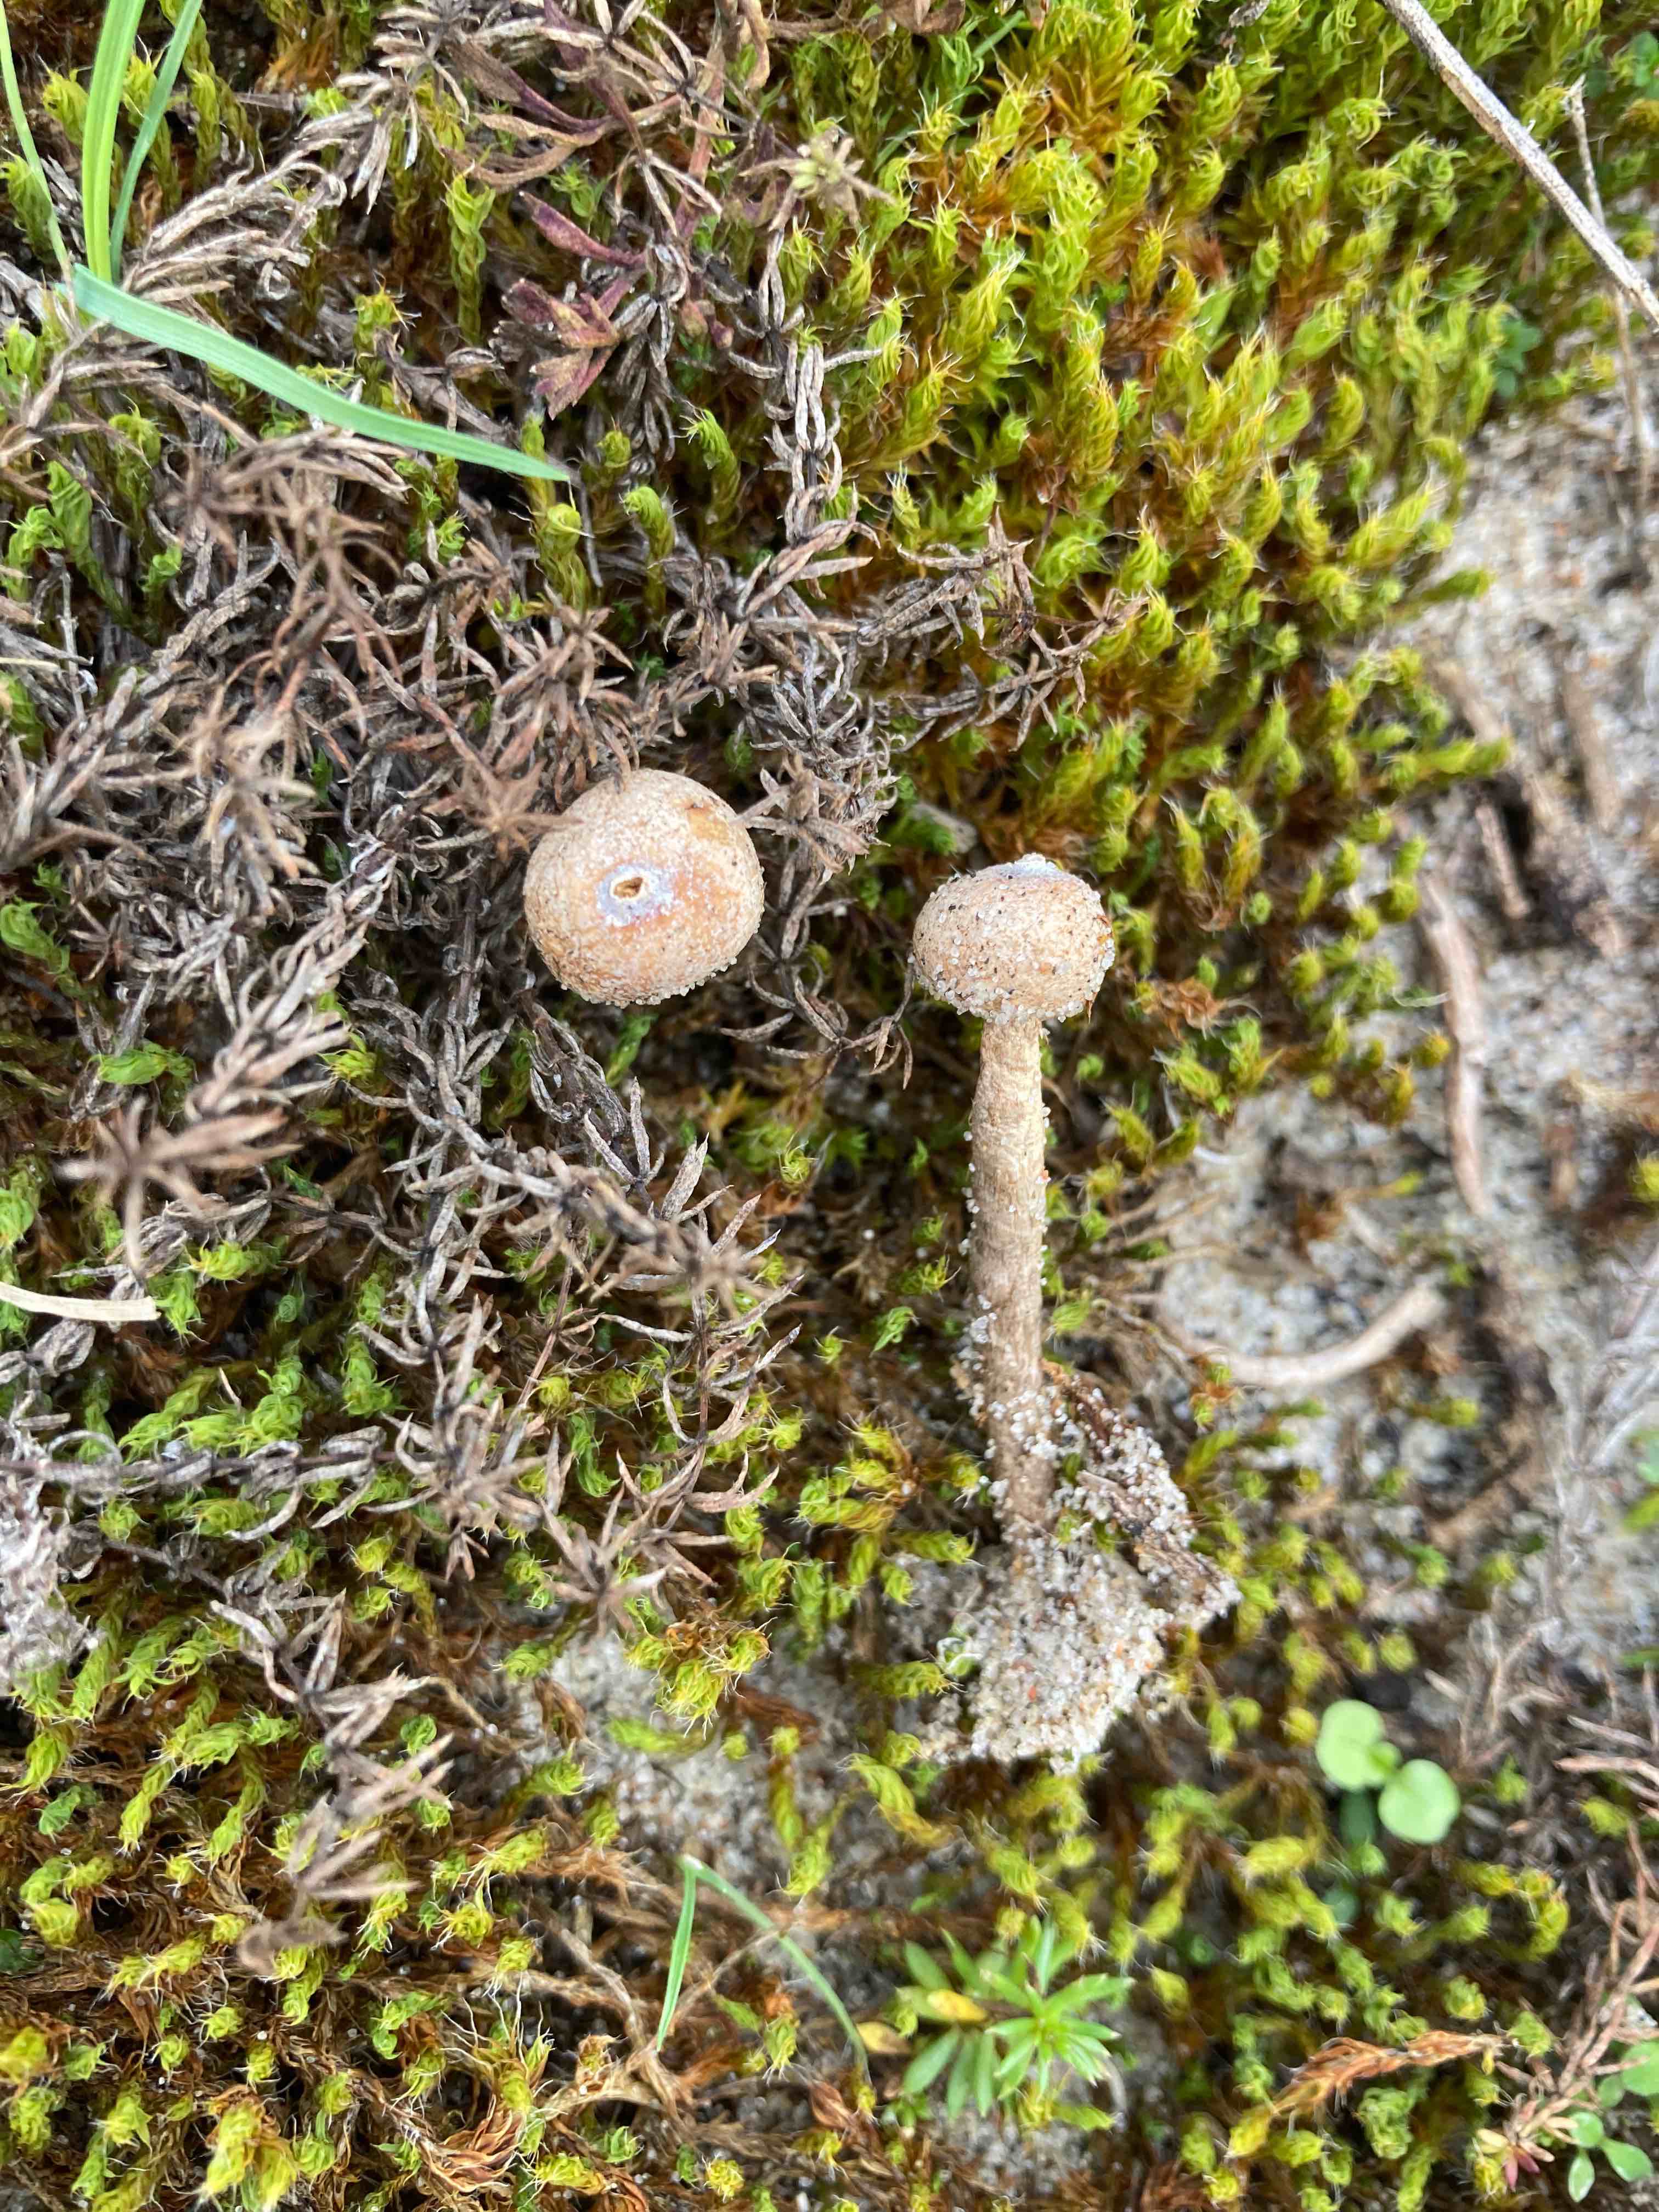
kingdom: Fungi
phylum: Basidiomycota
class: Agaricomycetes
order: Agaricales
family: Agaricaceae
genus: Tulostoma
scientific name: Tulostoma brumale
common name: vinter-stilkbovist
